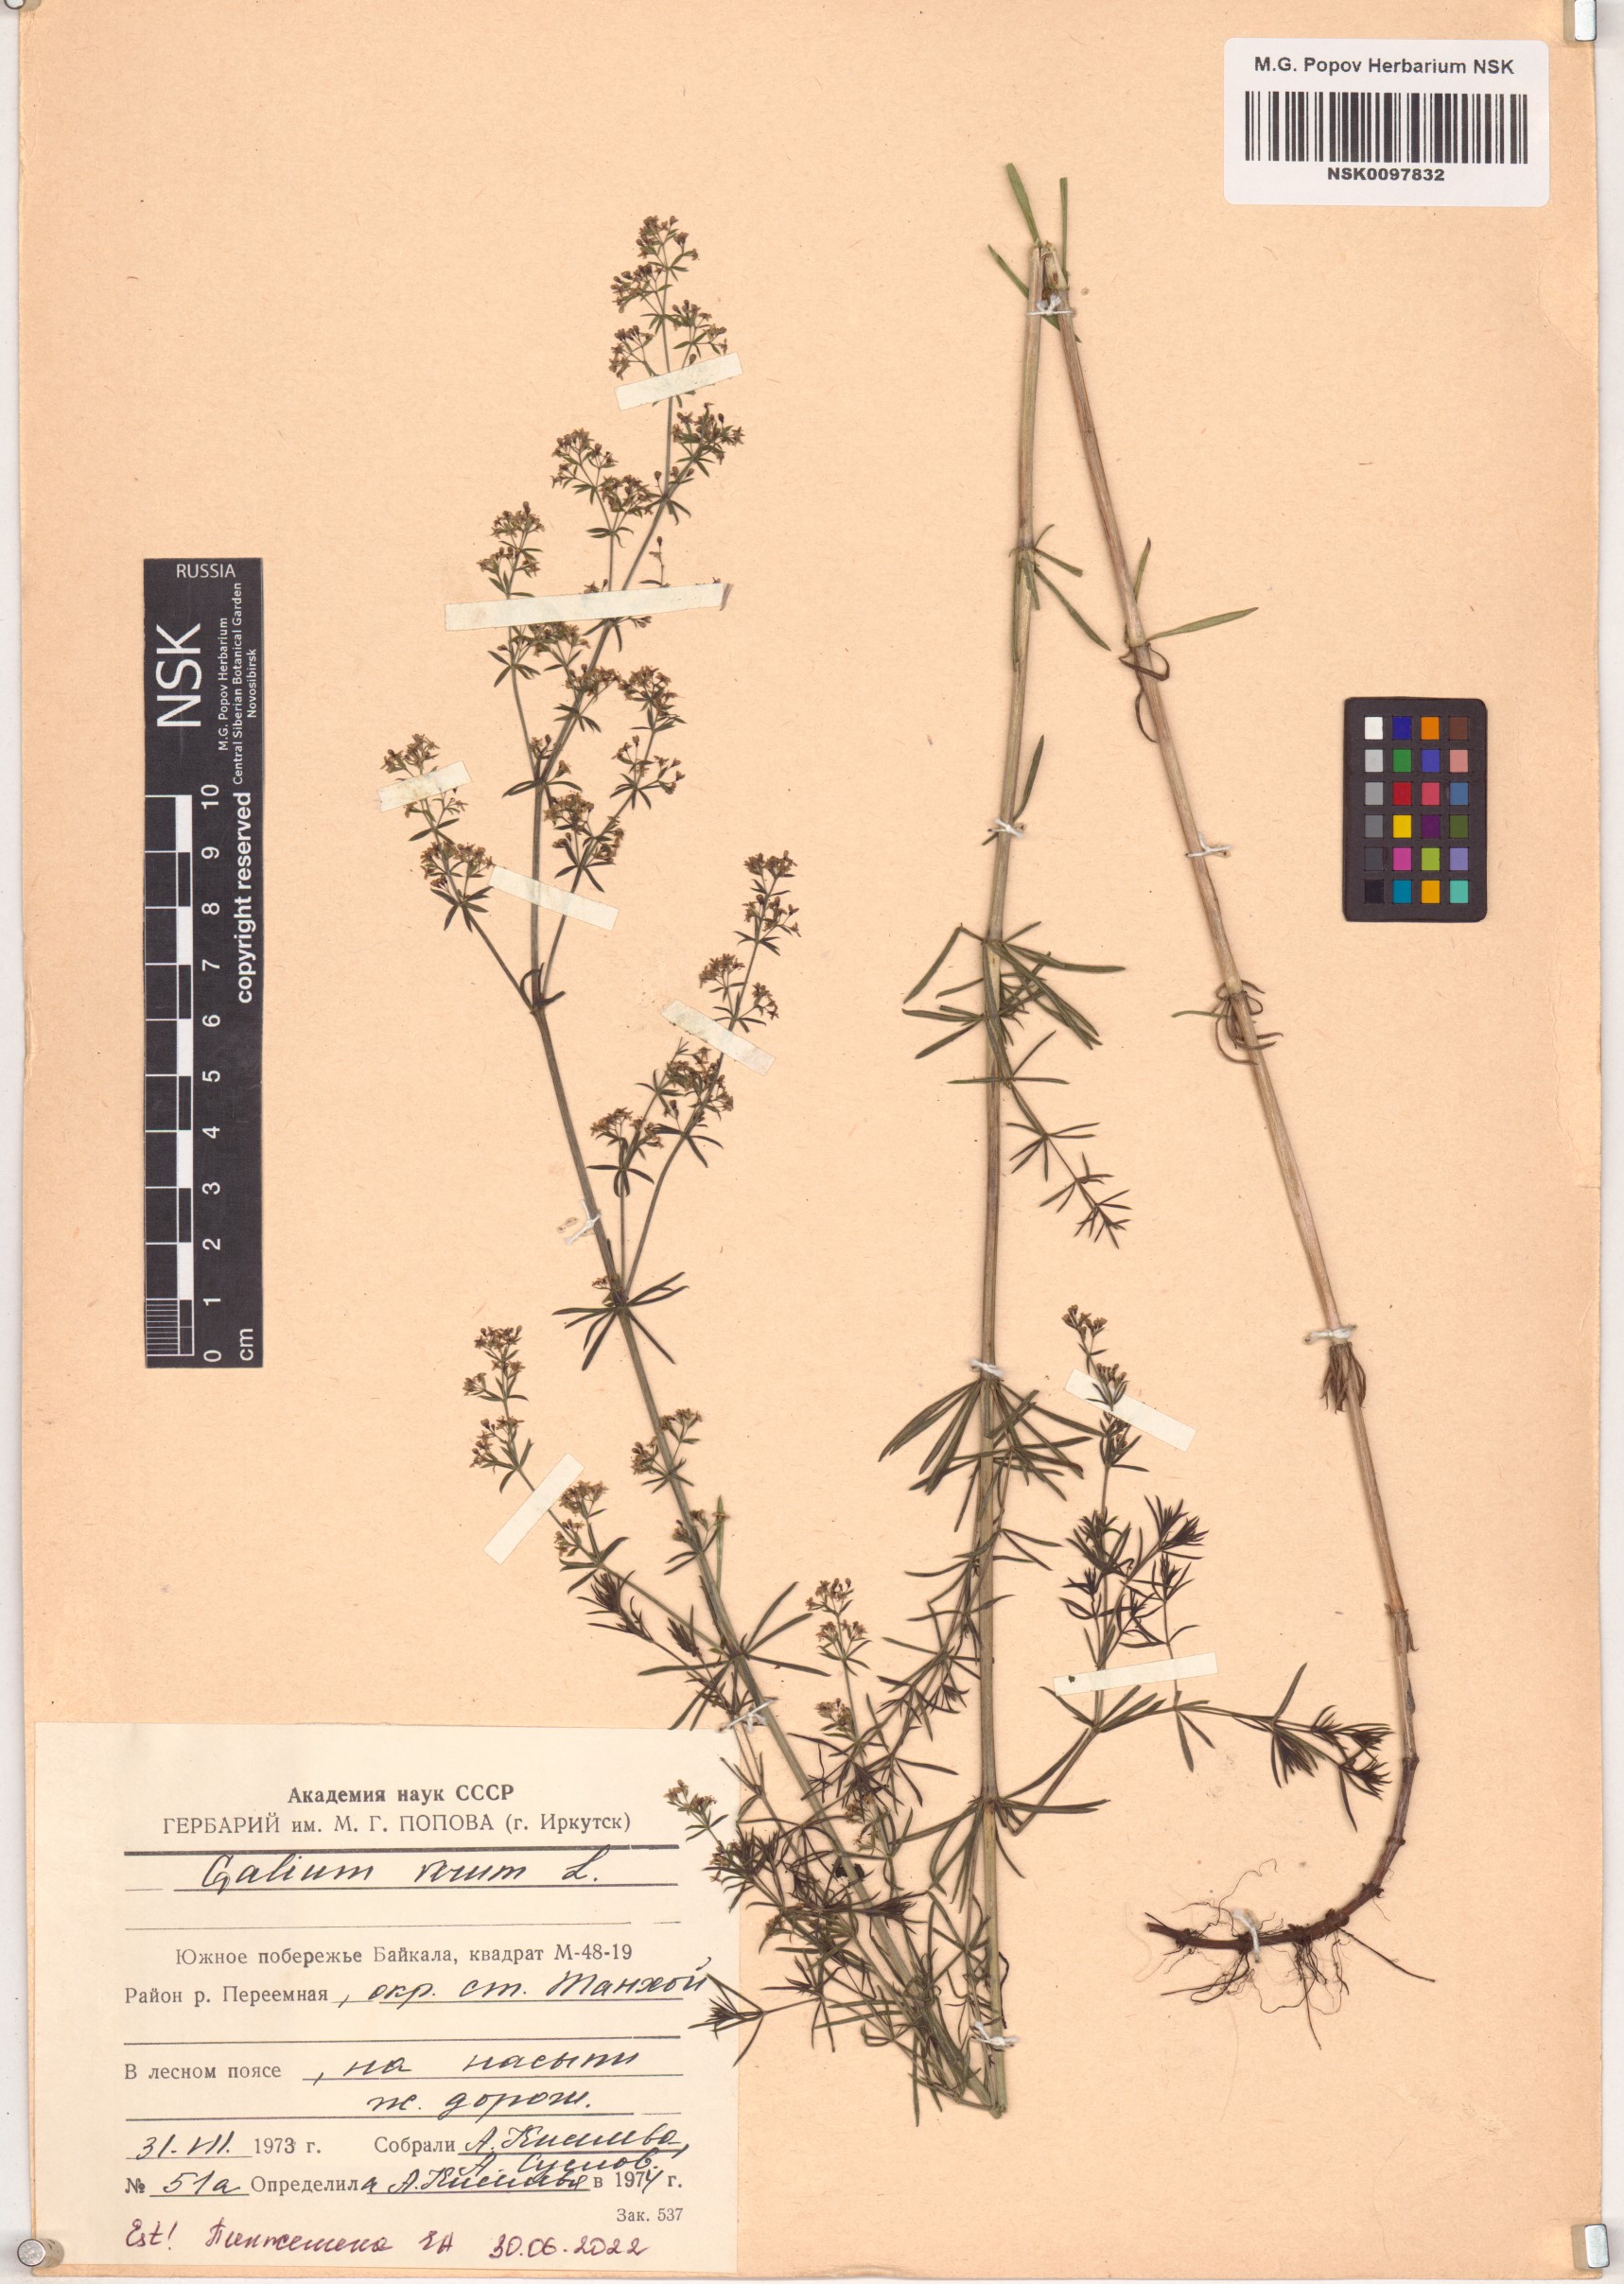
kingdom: Plantae
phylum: Tracheophyta
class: Magnoliopsida
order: Gentianales
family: Rubiaceae
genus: Galium
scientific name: Galium verum
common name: Lady's bedstraw
